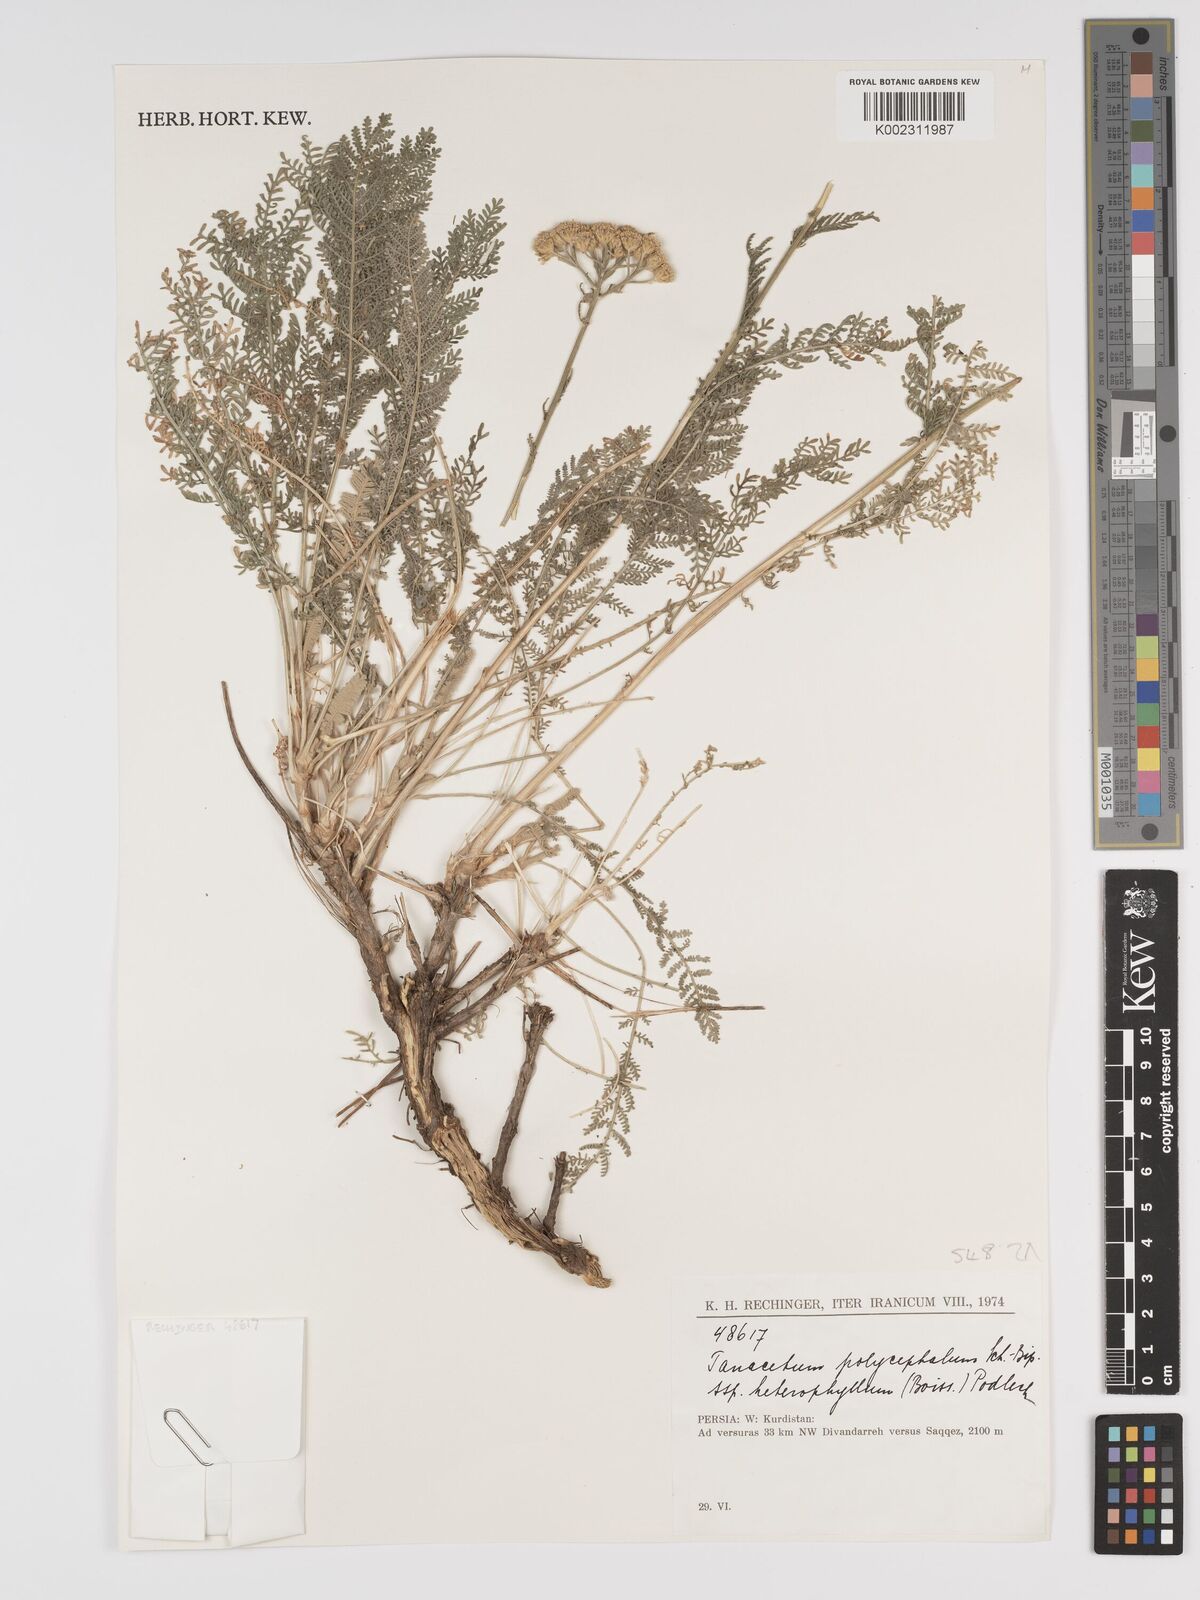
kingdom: Plantae
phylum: Tracheophyta
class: Magnoliopsida
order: Asterales
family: Asteraceae
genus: Tanacetum
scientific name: Tanacetum polycephalum
